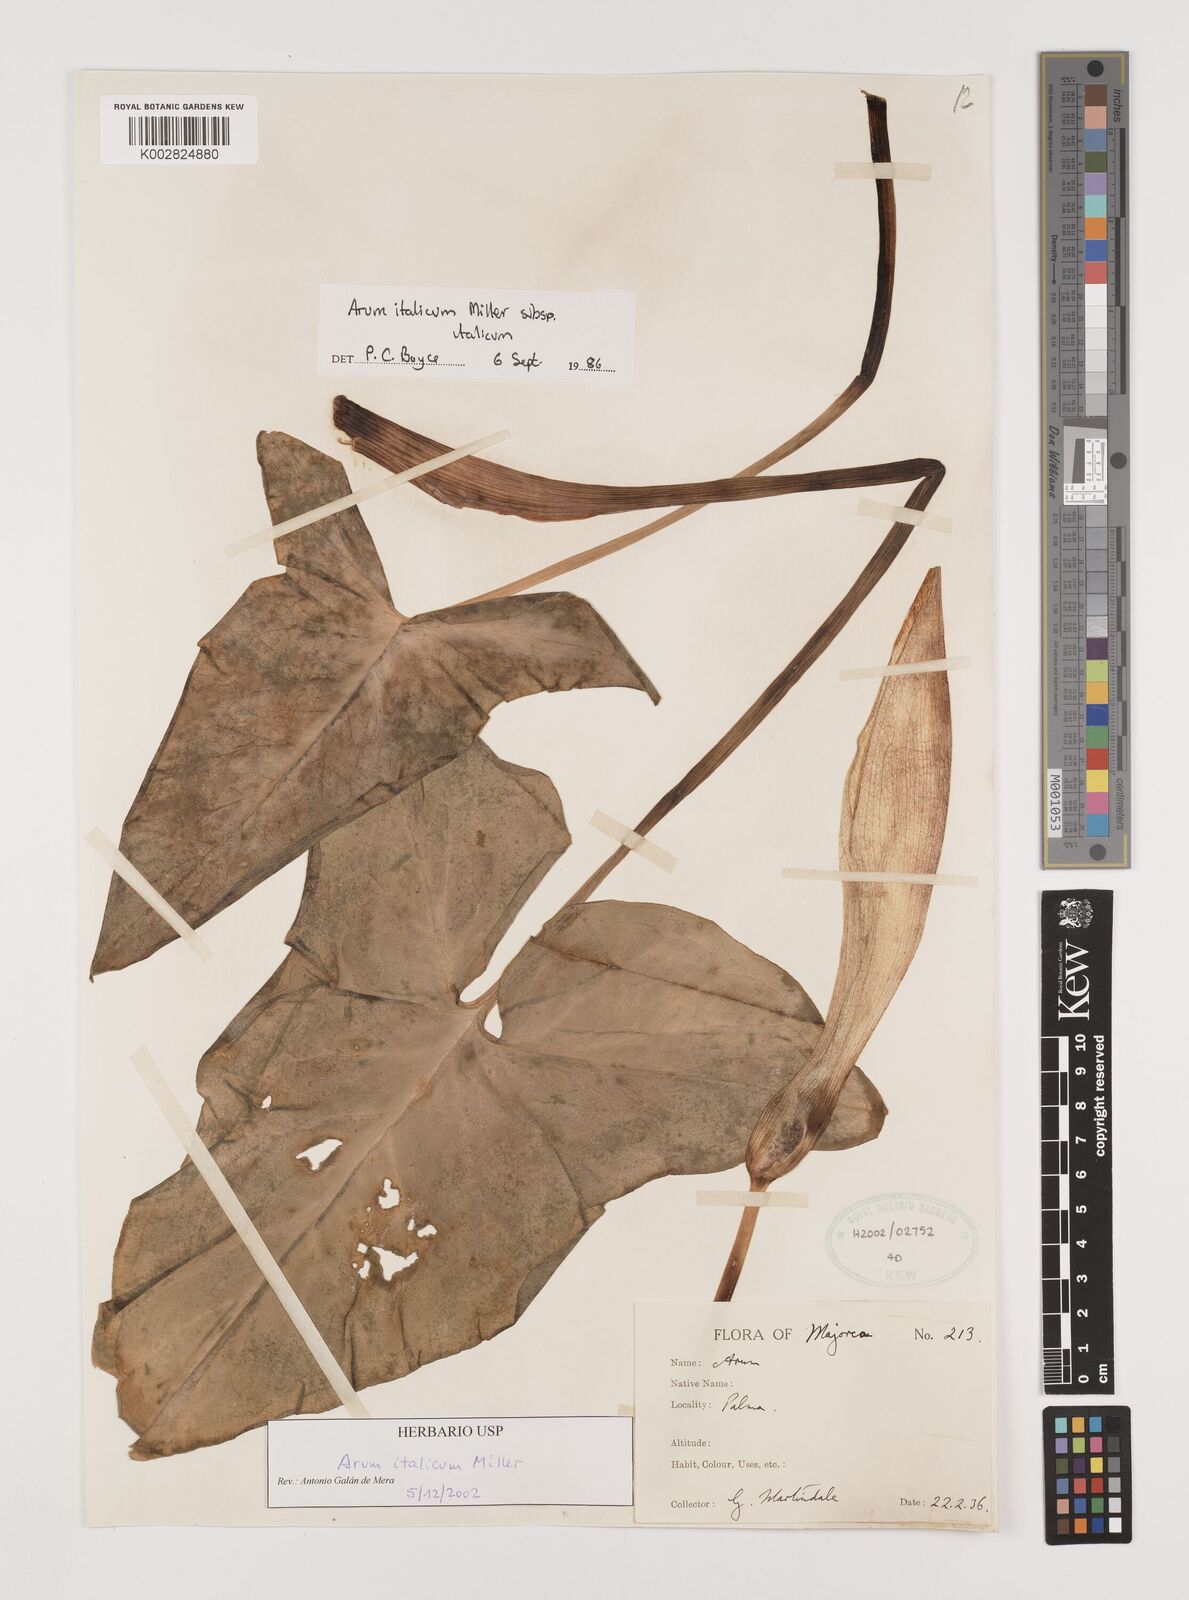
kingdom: Plantae
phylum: Tracheophyta
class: Liliopsida
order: Alismatales
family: Araceae
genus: Arum
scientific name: Arum italicum
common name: Italian lords-and-ladies
